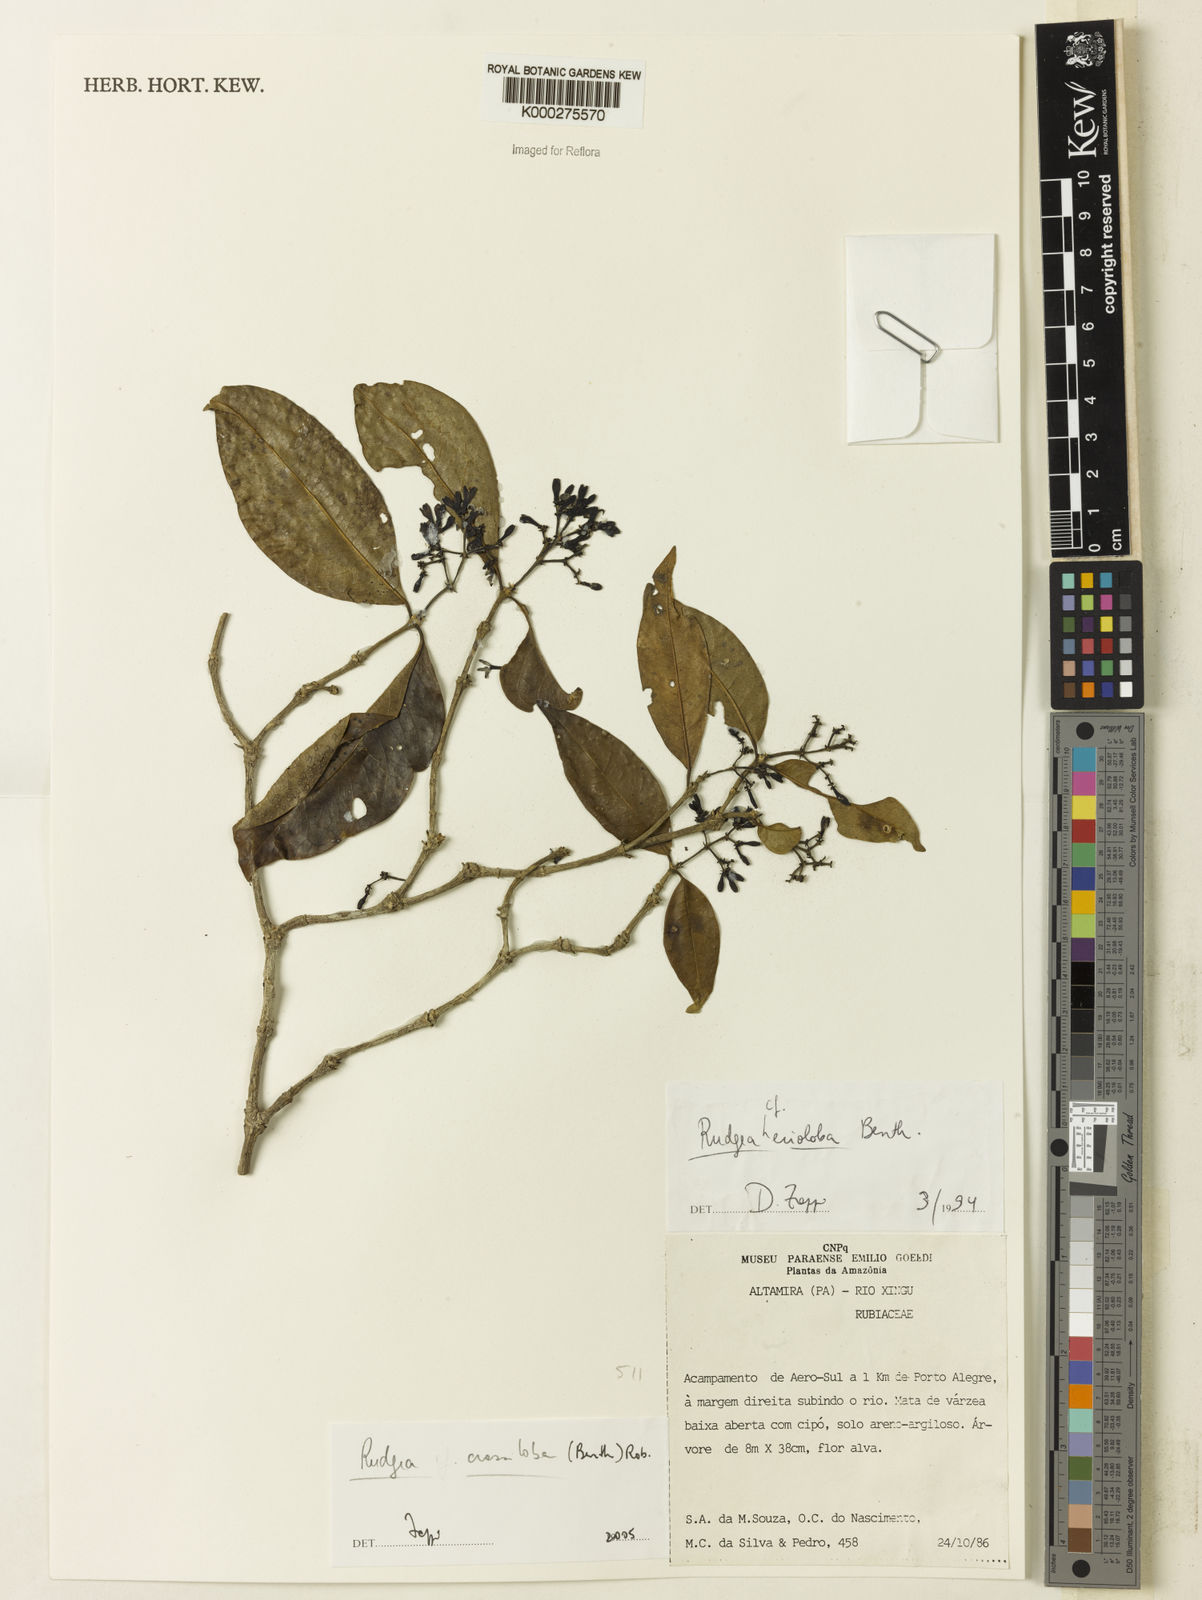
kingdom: Plantae
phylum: Tracheophyta
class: Magnoliopsida
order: Gentianales
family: Rubiaceae
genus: Rudgea
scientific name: Rudgea crassiloba
